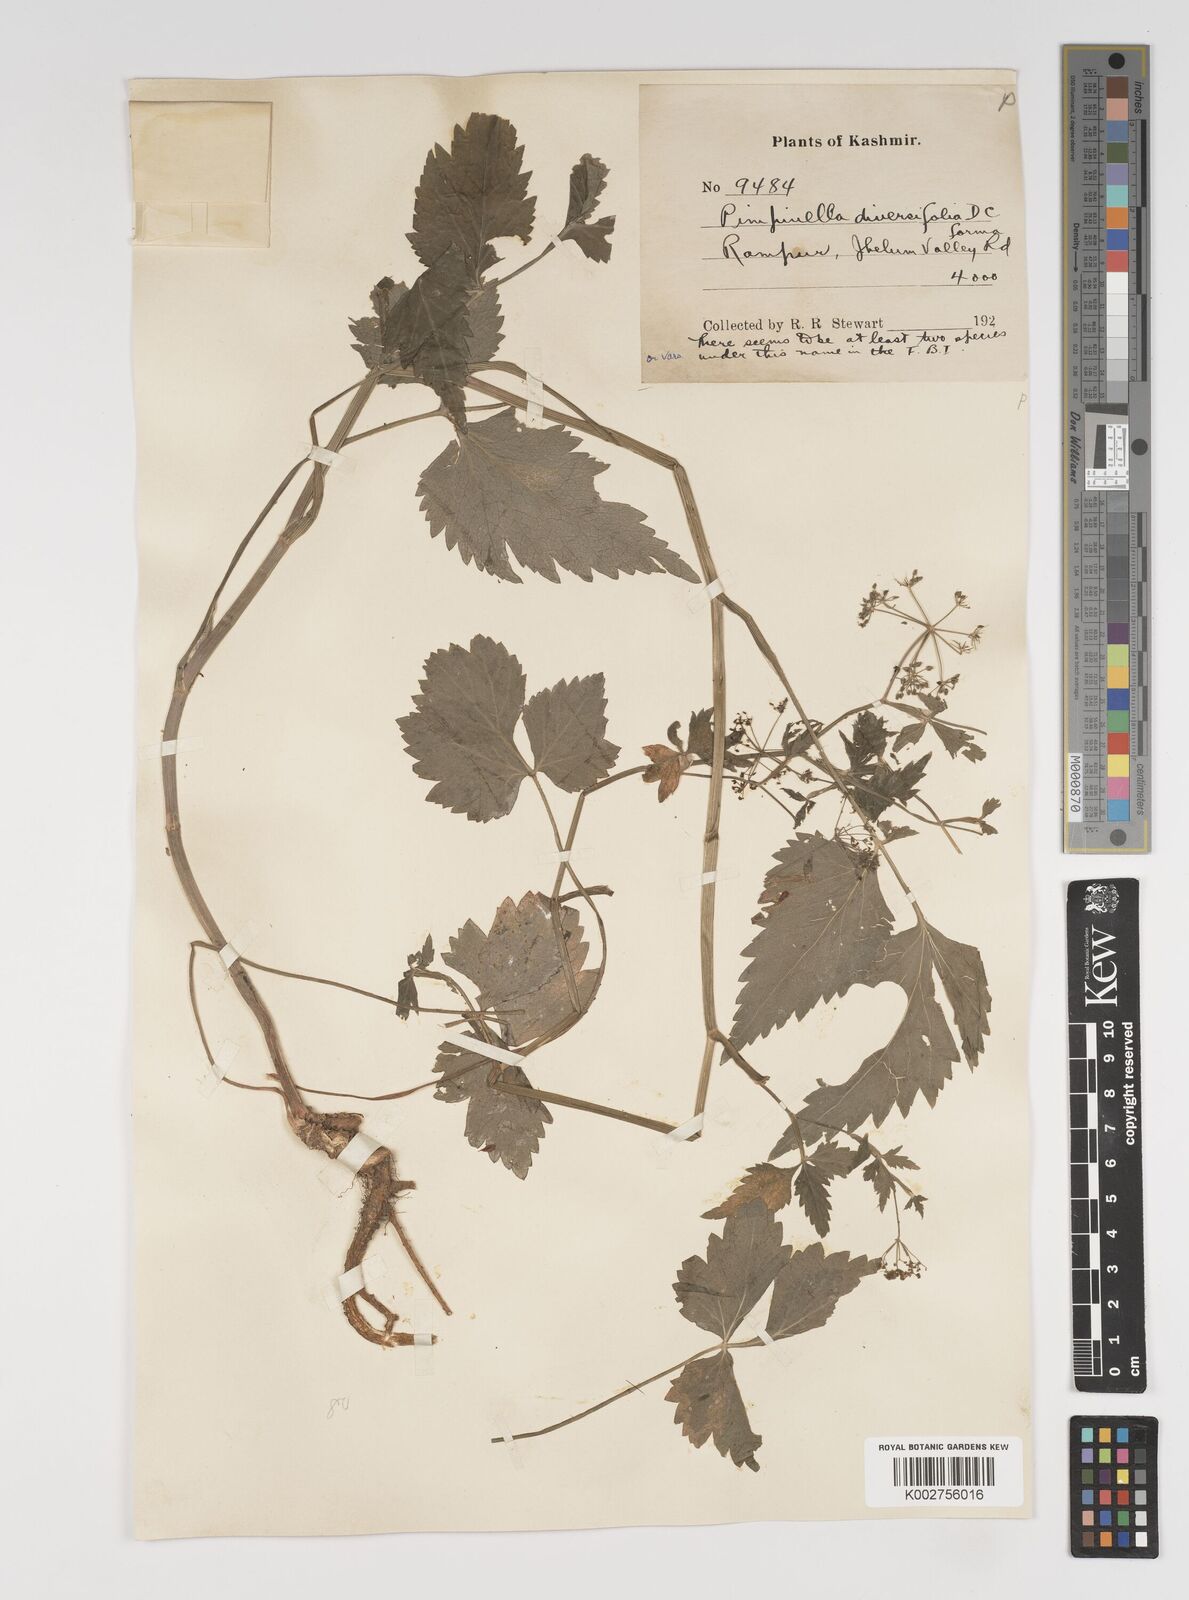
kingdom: Plantae
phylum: Tracheophyta
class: Magnoliopsida
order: Apiales
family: Apiaceae
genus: Pimpinella
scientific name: Pimpinella diversifolia
